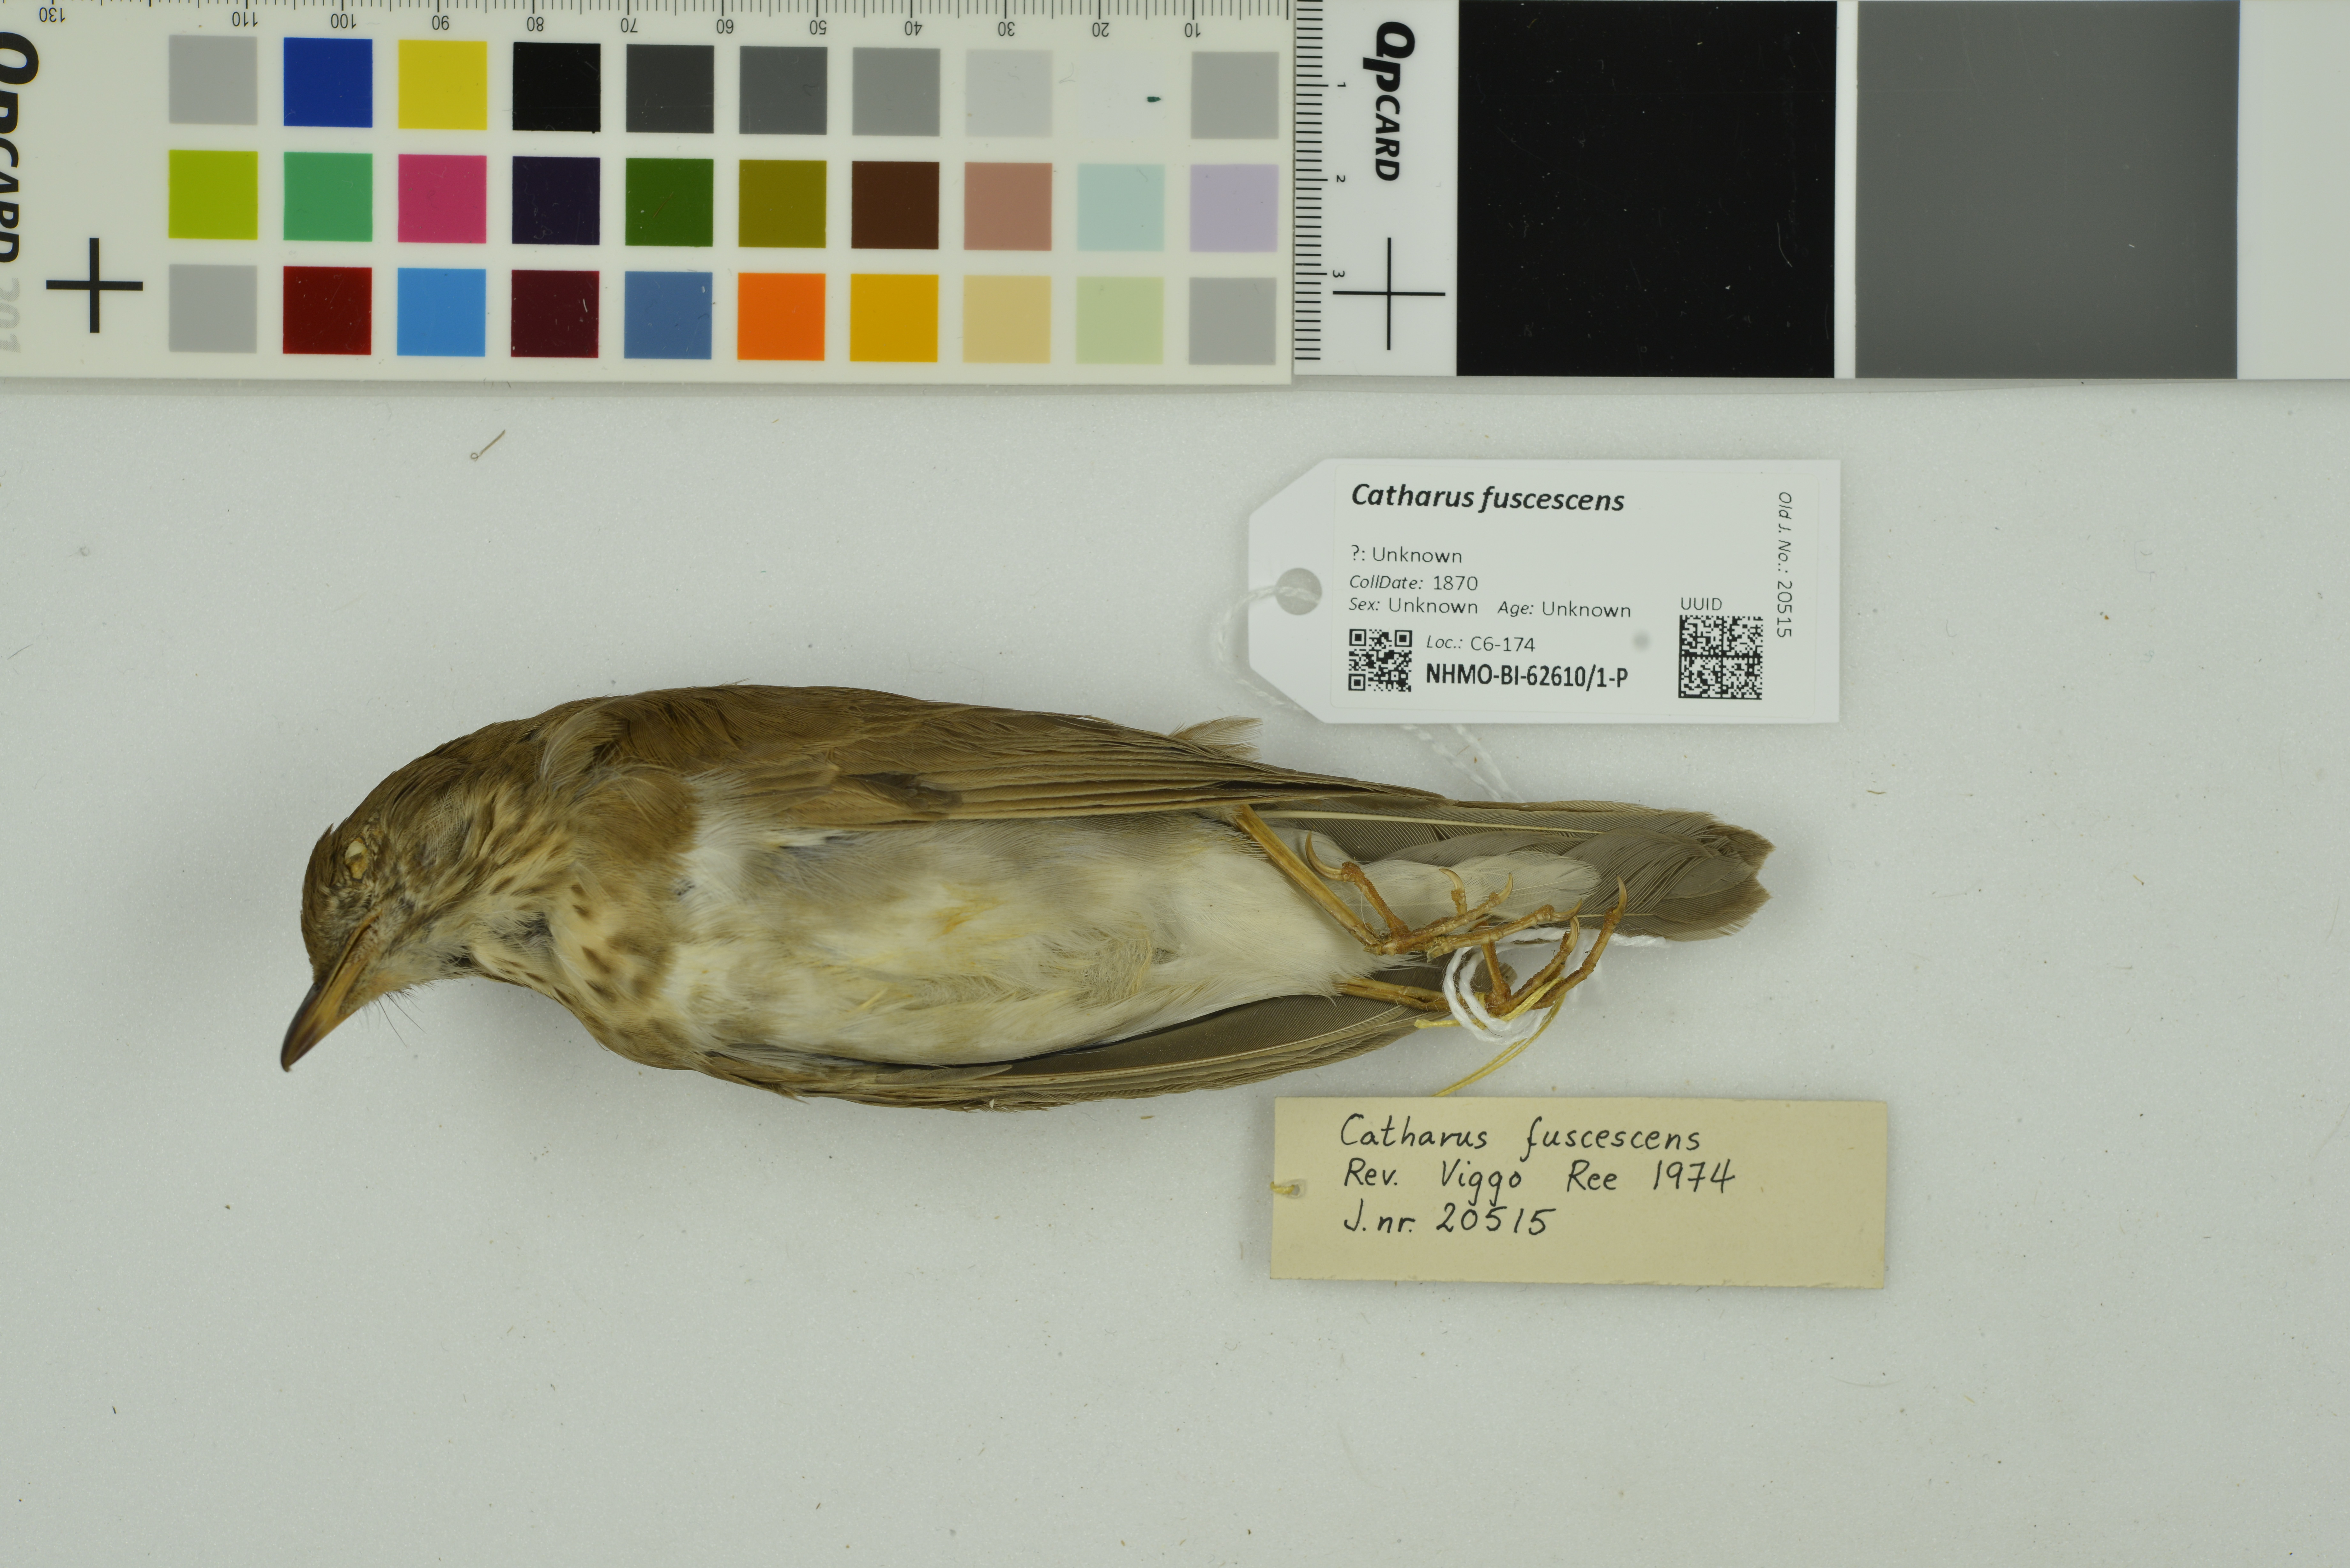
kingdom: Animalia
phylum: Chordata
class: Aves
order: Passeriformes
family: Turdidae
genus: Catharus
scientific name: Catharus fuscescens
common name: Veery
